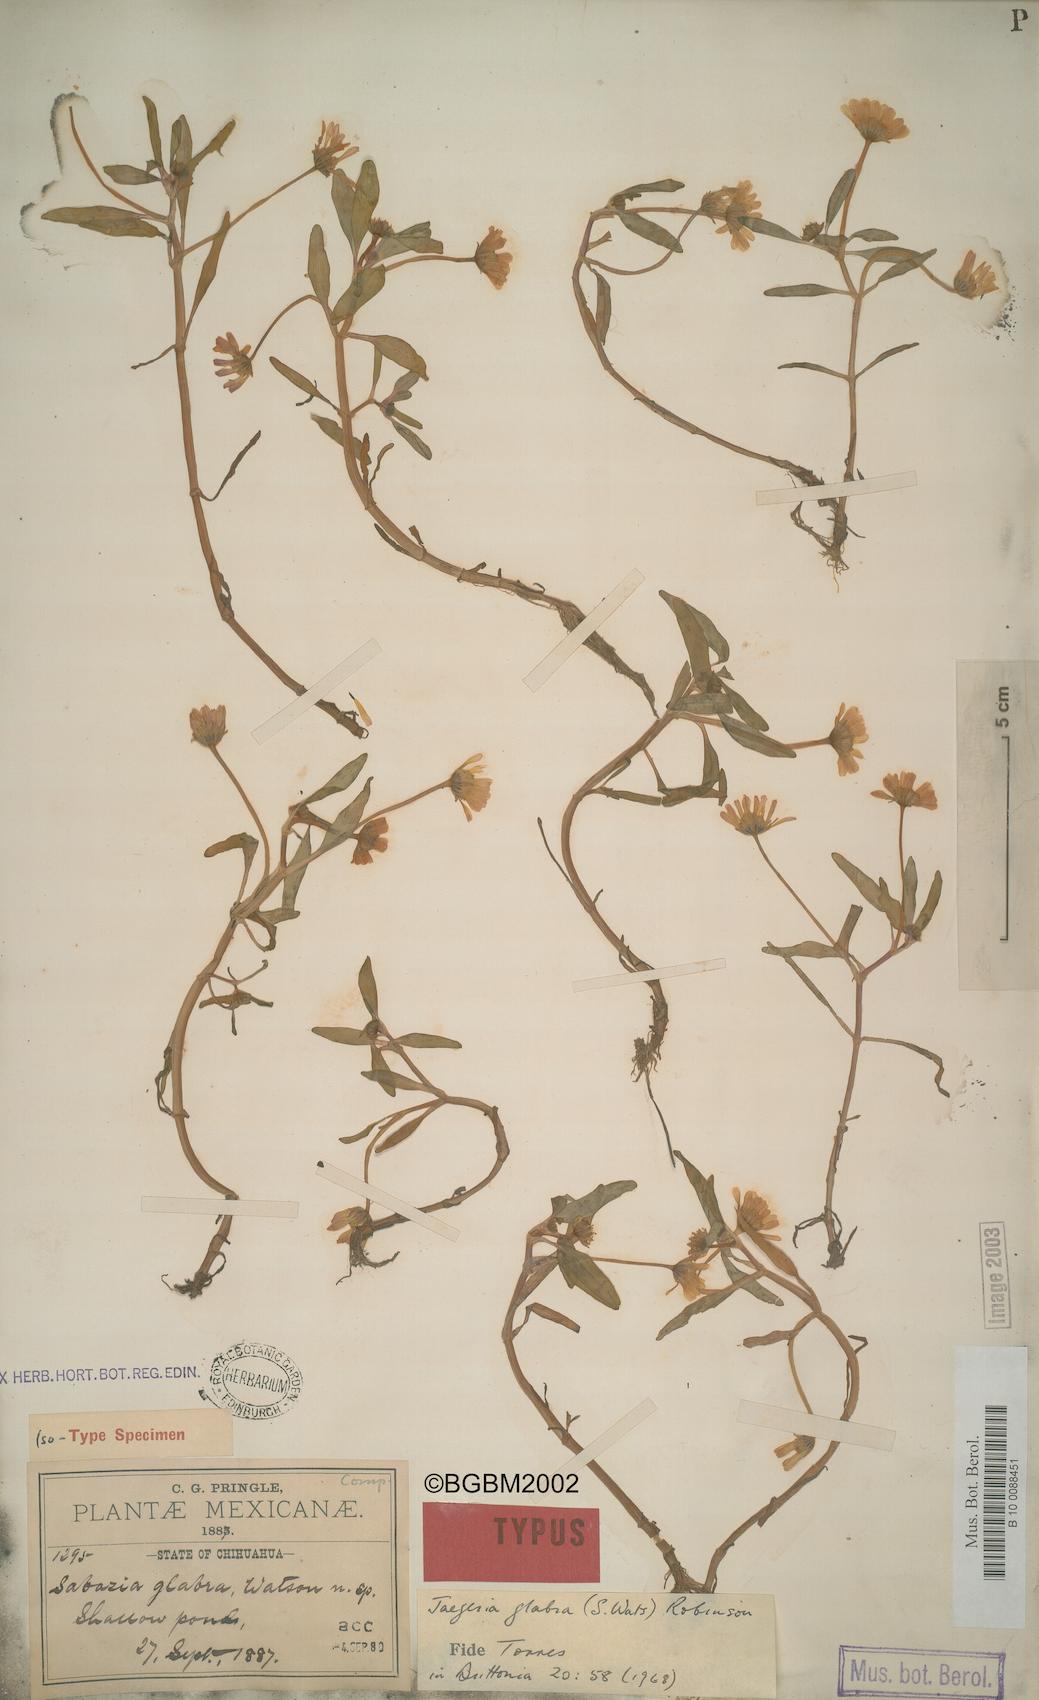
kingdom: Plantae
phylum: Tracheophyta
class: Magnoliopsida
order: Asterales
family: Asteraceae
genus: Jaegeria
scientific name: Jaegeria glabra
